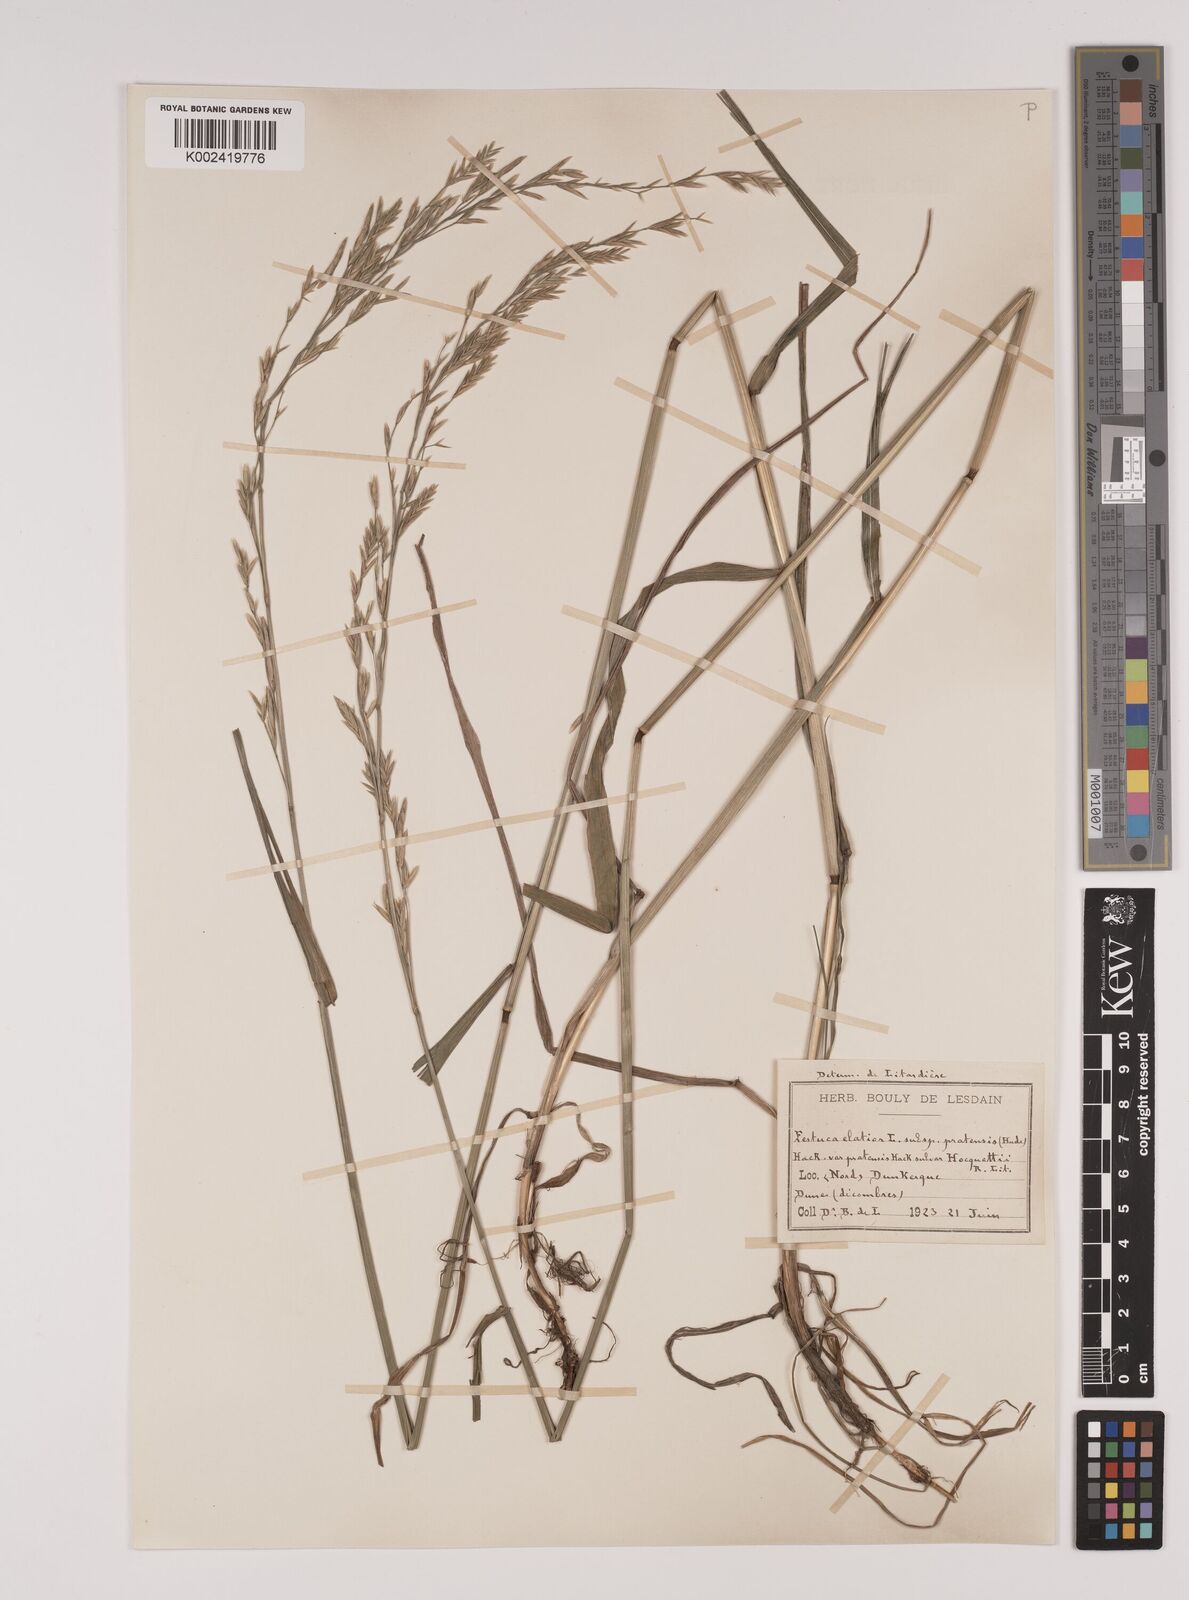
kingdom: Plantae
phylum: Tracheophyta
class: Liliopsida
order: Poales
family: Poaceae
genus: Lolium
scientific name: Lolium pratense
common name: Dover grass
